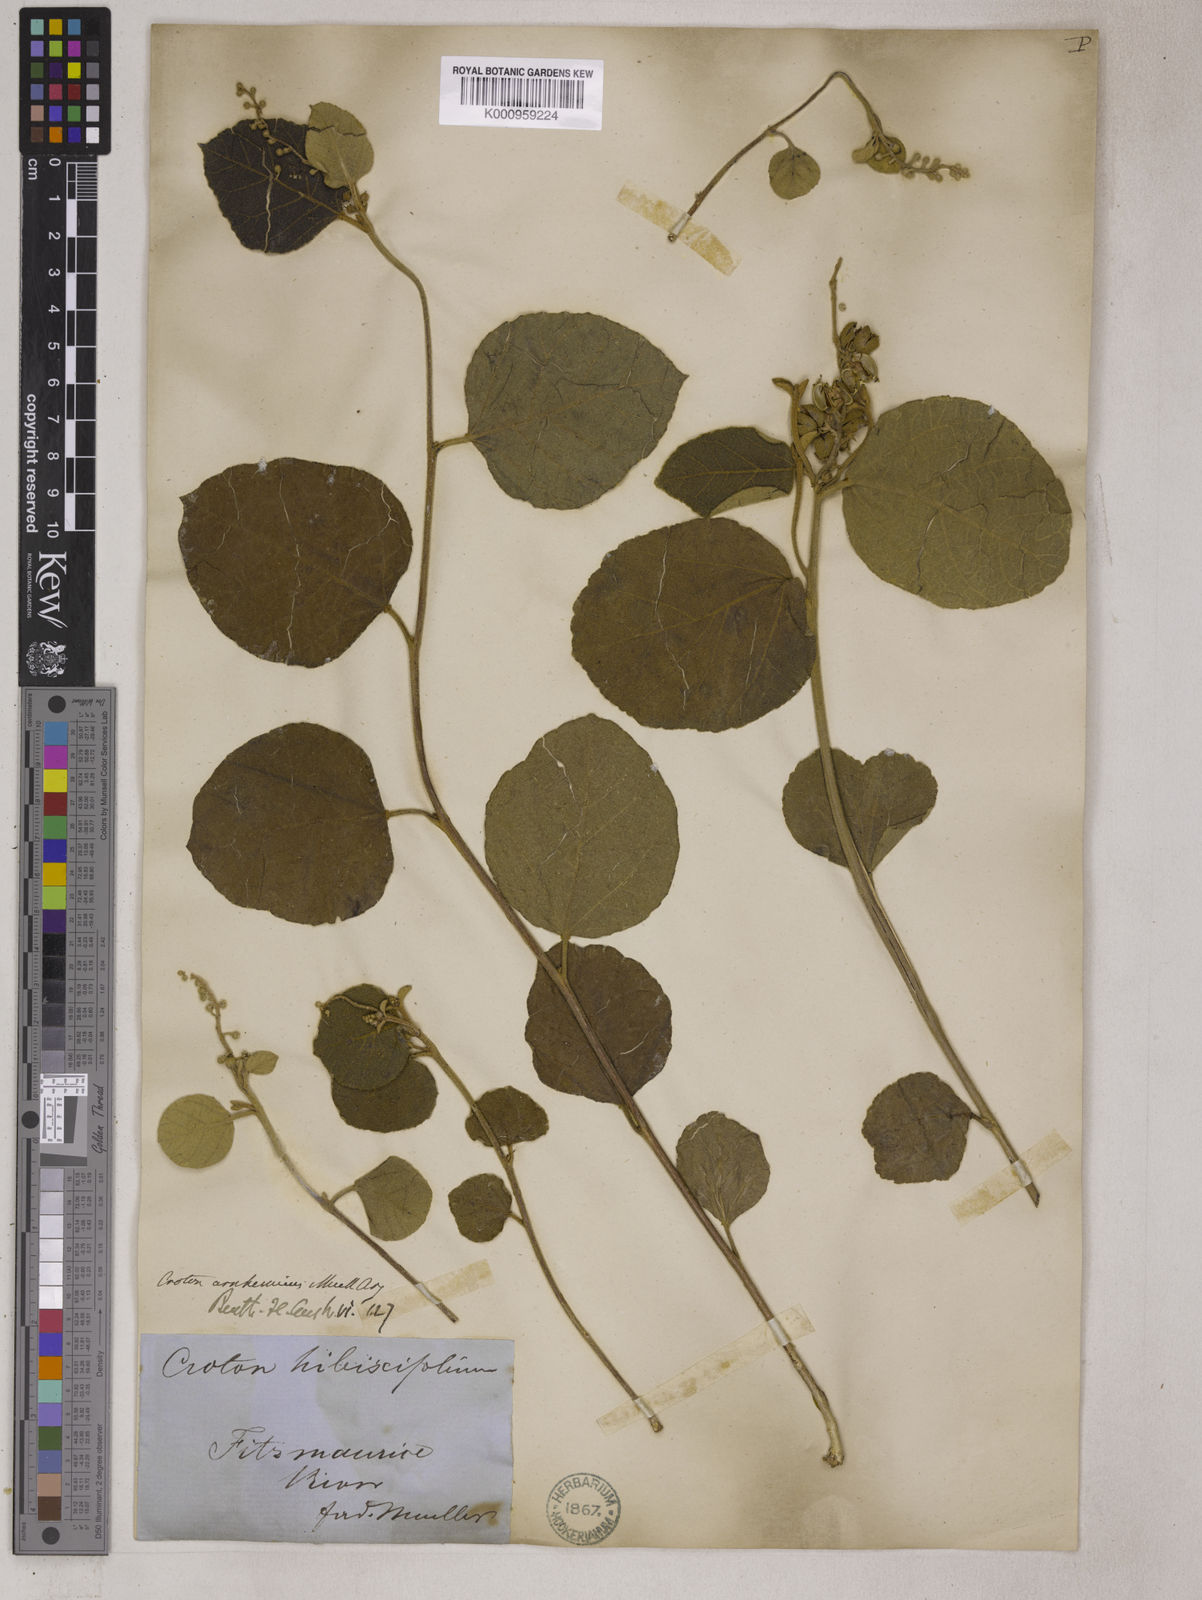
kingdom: Plantae
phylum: Tracheophyta
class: Magnoliopsida
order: Malpighiales
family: Euphorbiaceae
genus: Croton
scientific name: Croton
